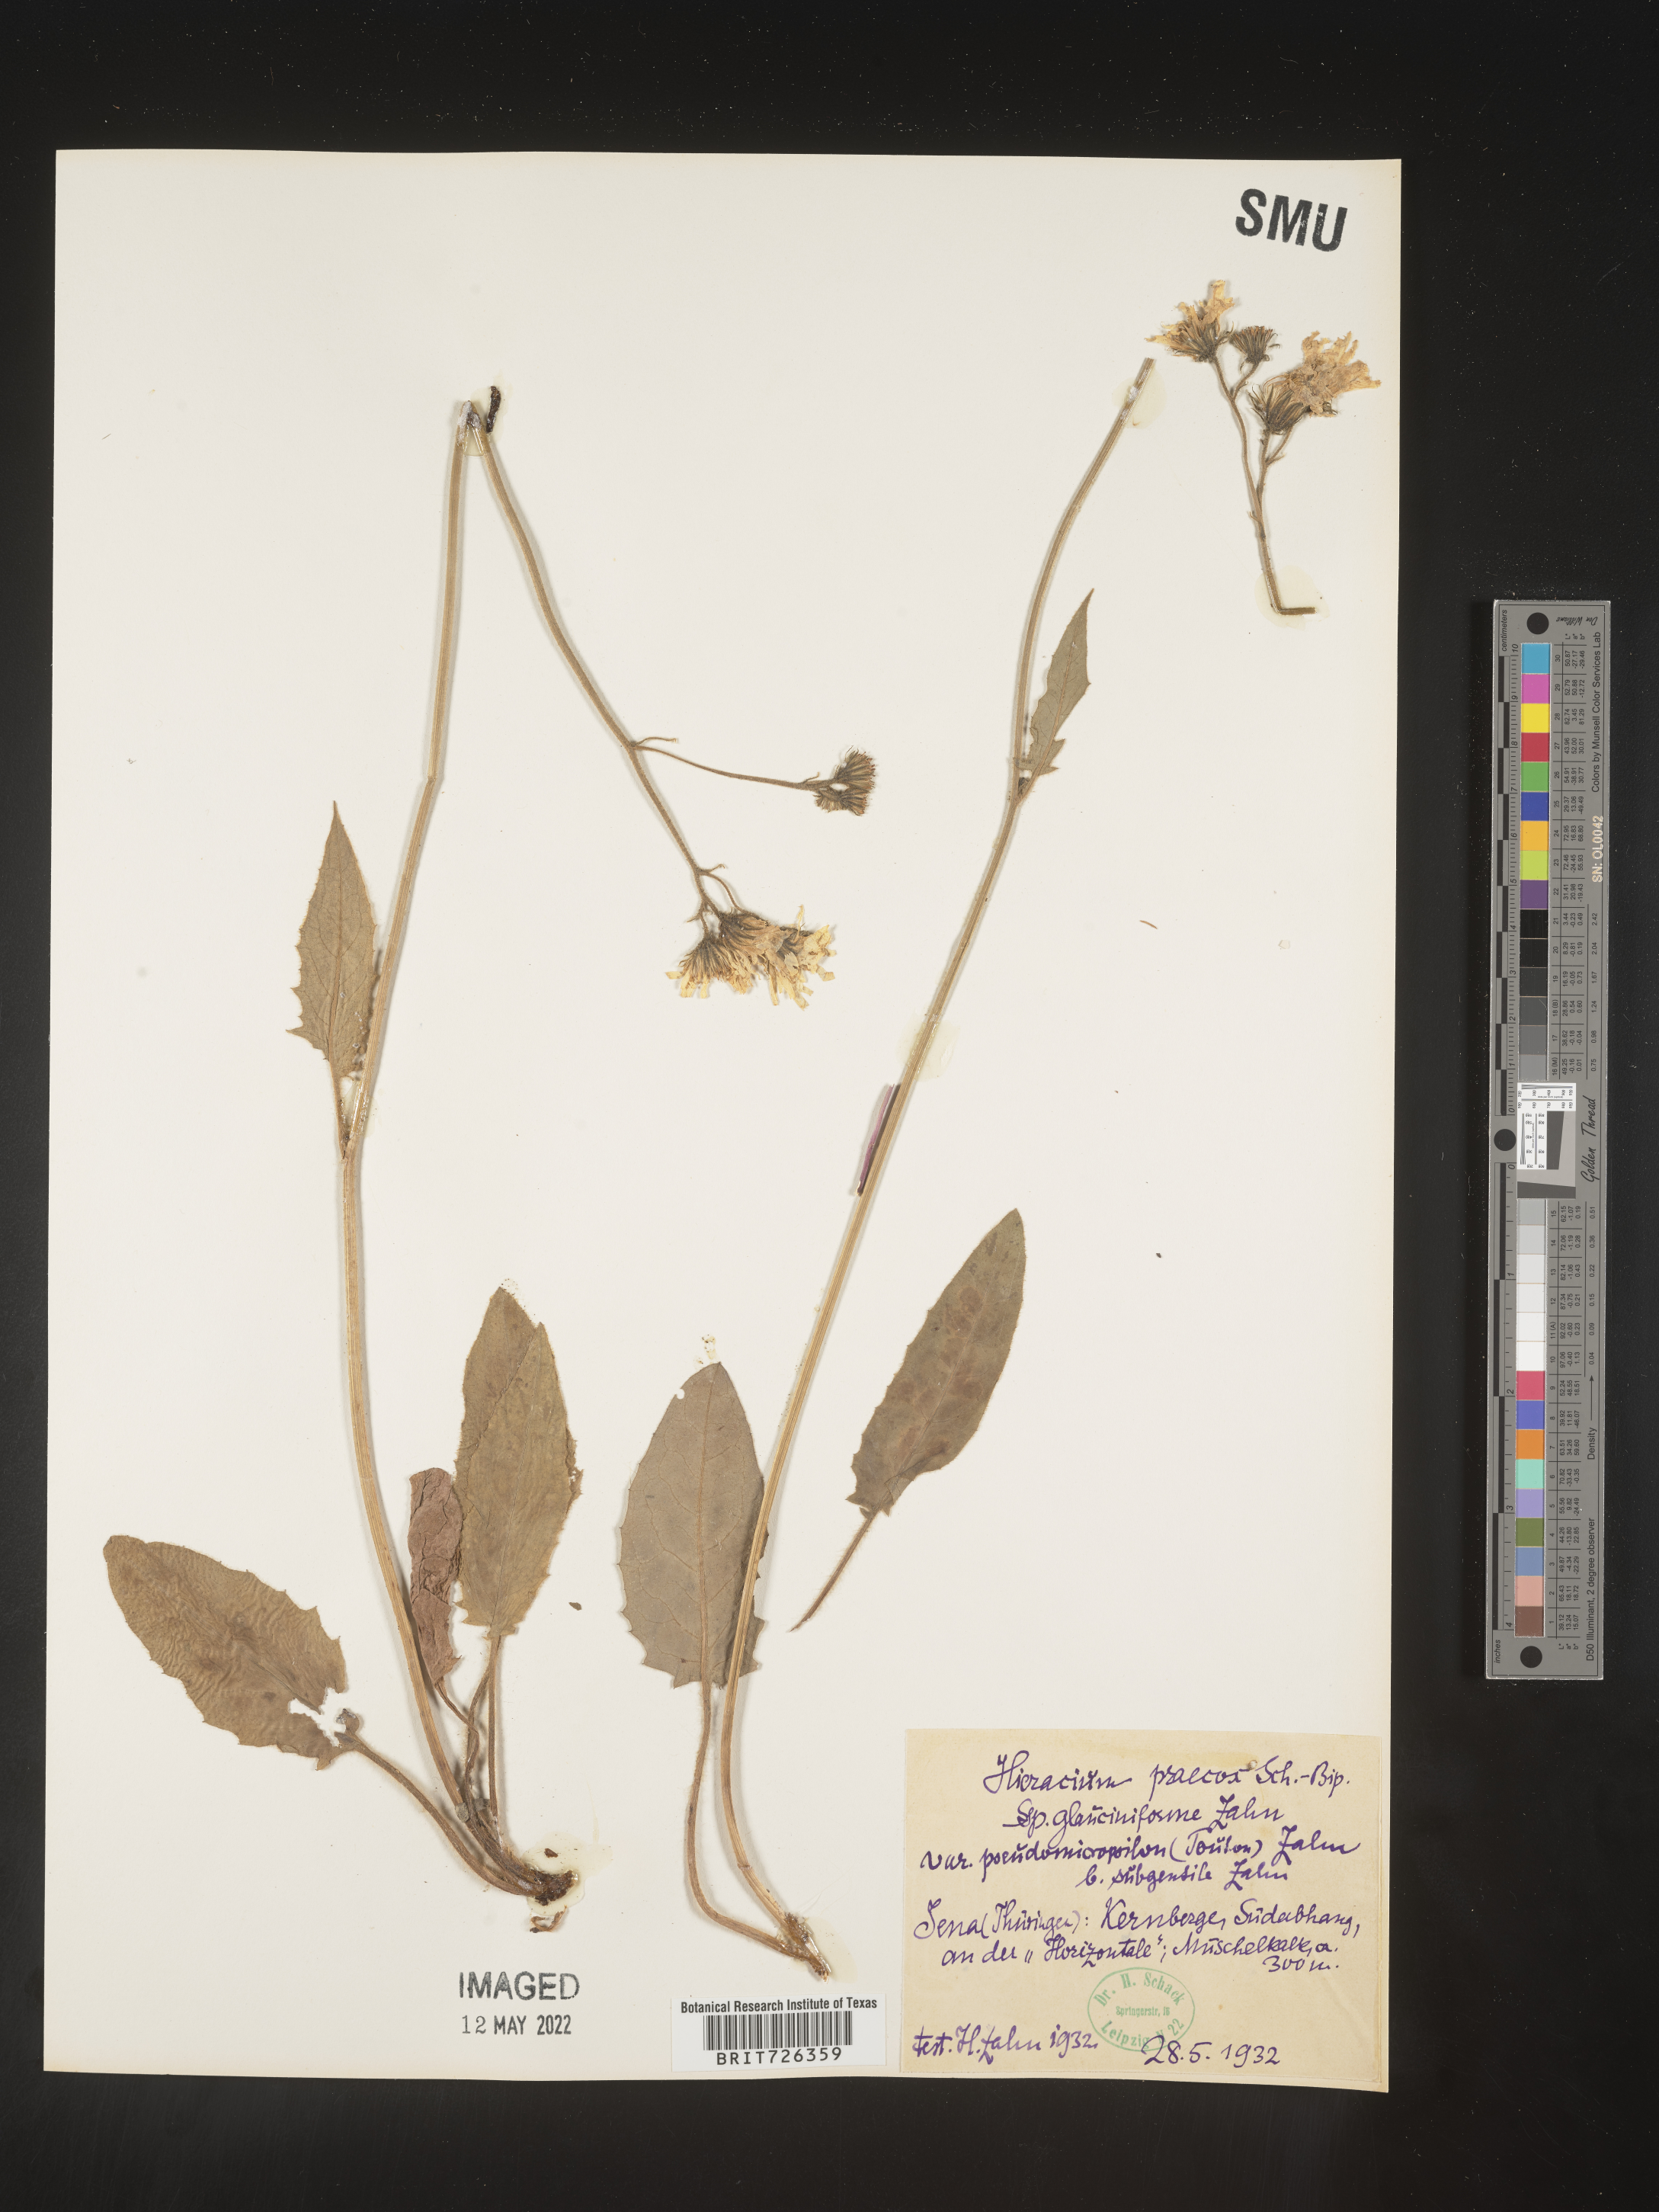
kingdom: Plantae
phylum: Tracheophyta
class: Magnoliopsida
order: Asterales
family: Asteraceae
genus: Hieracium
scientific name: Hieracium
